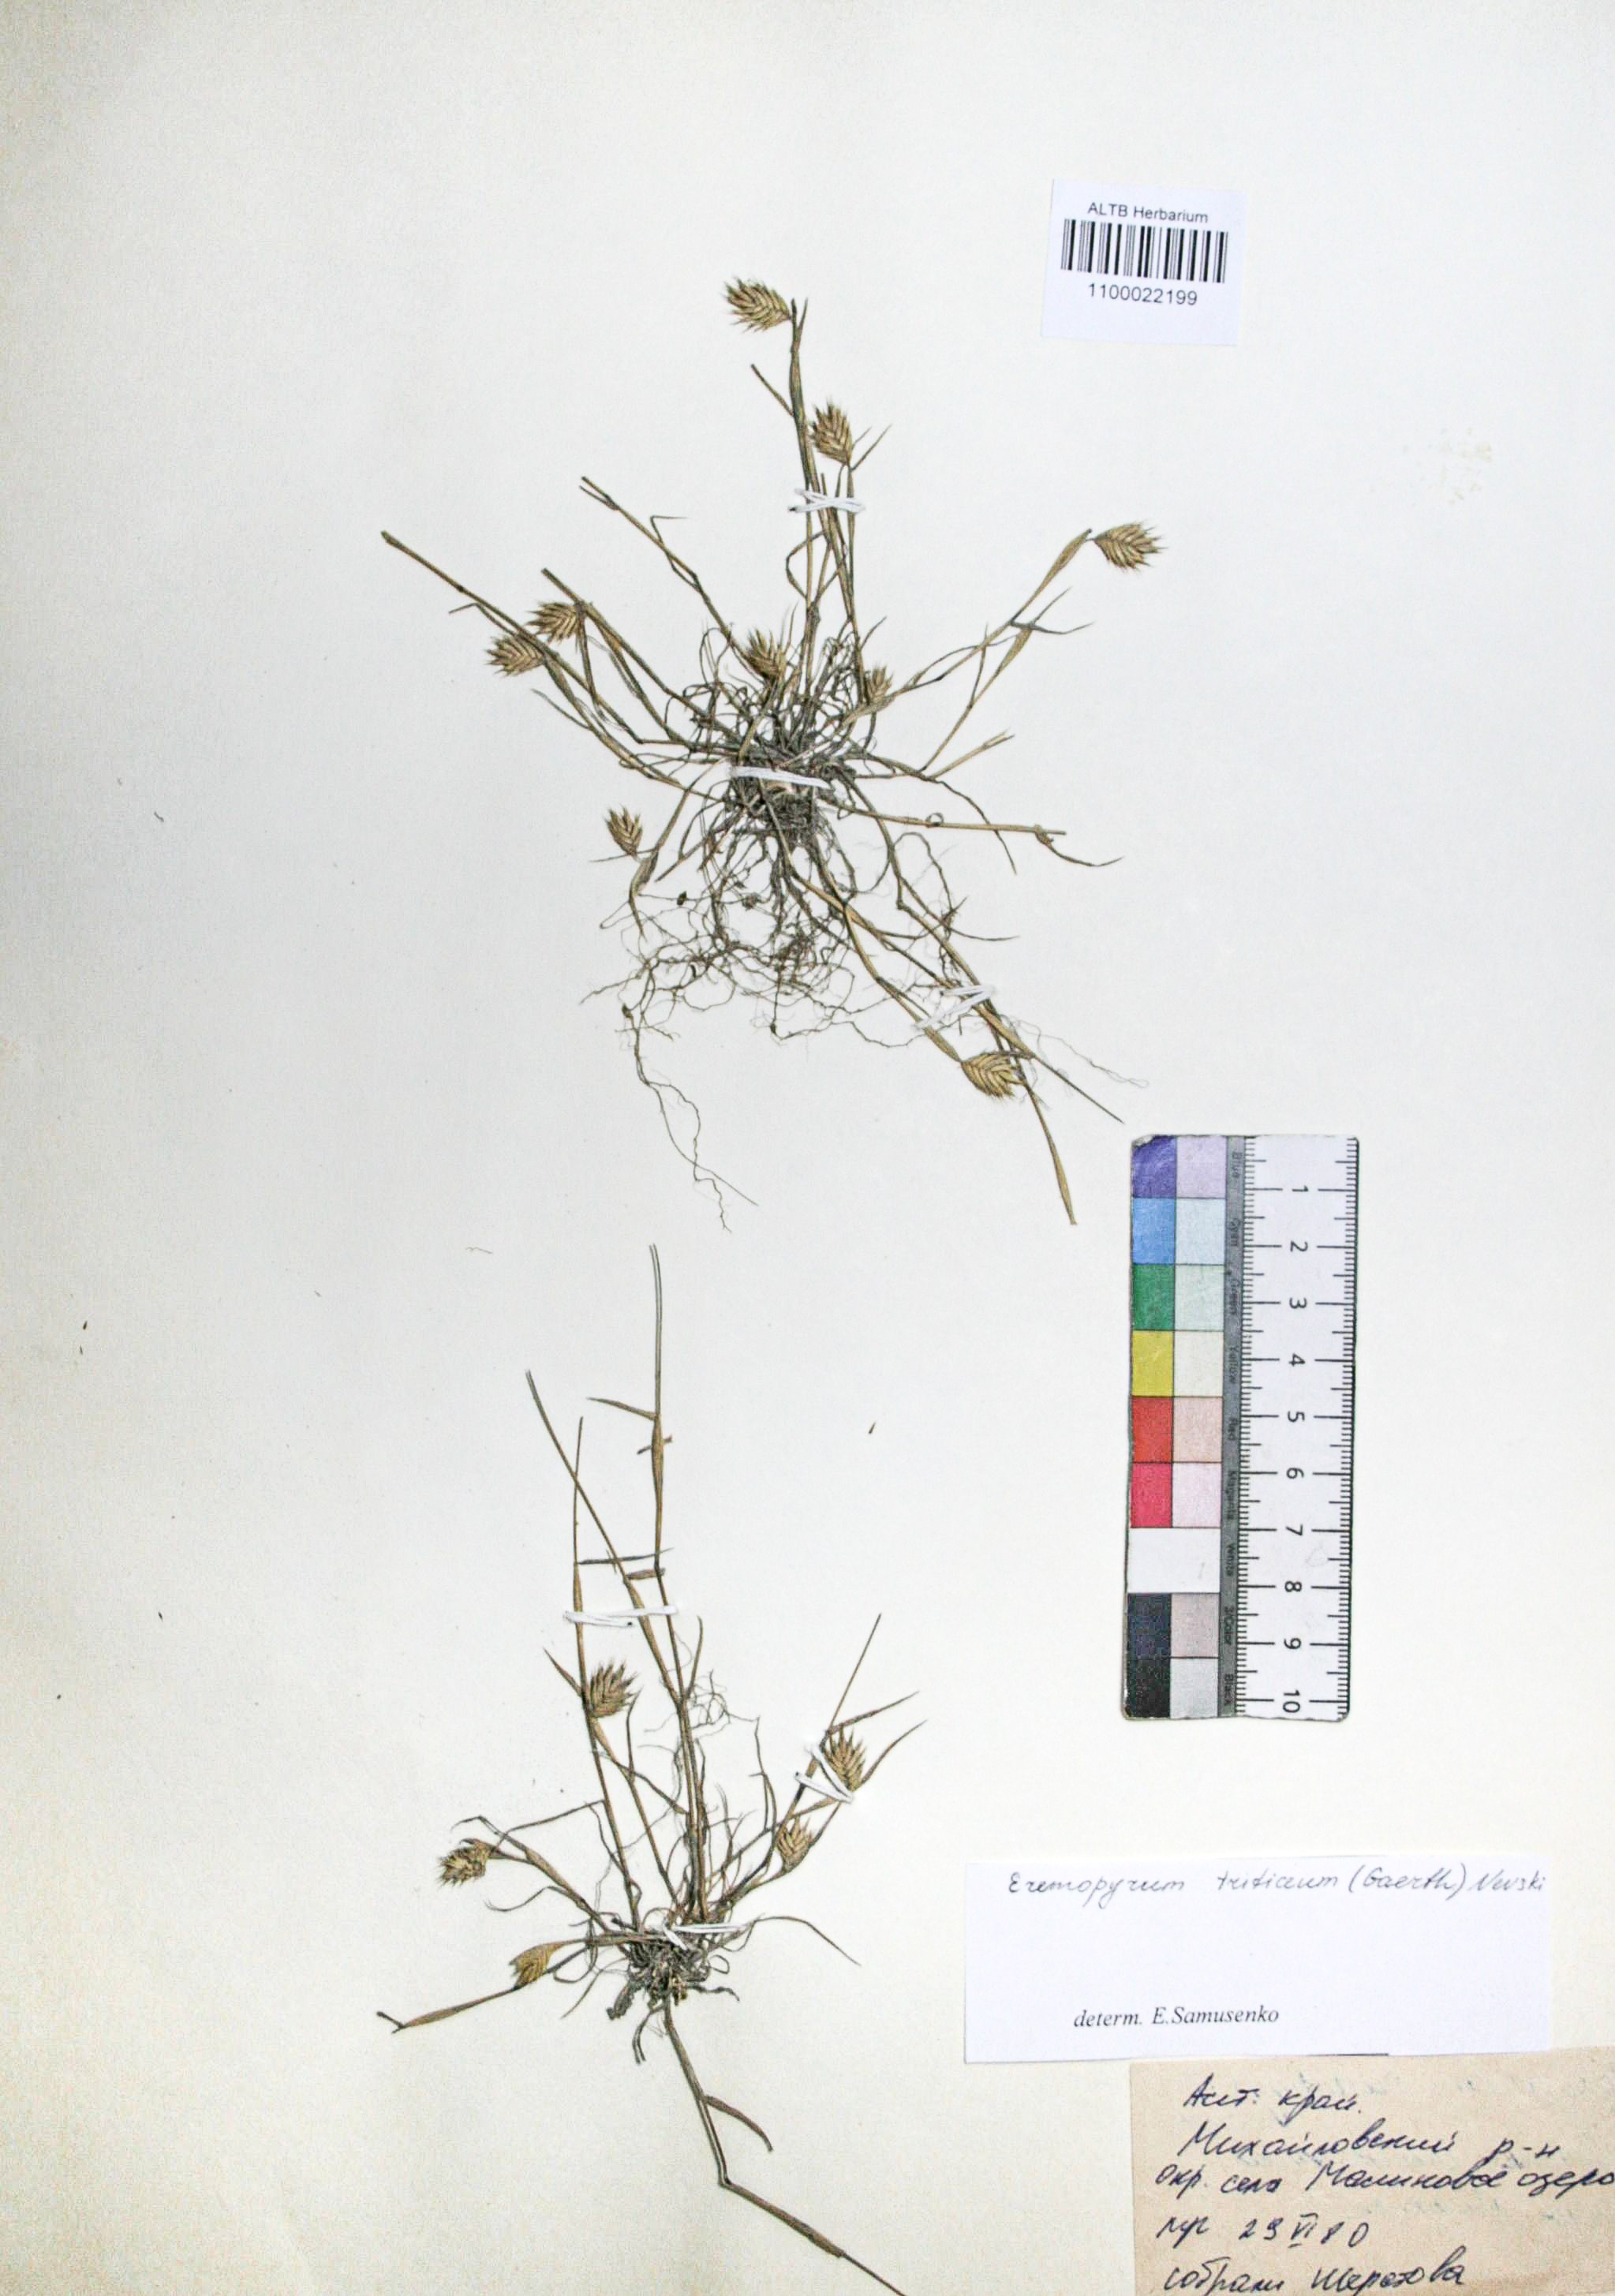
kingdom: Plantae
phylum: Tracheophyta
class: Liliopsida
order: Poales
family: Poaceae
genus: Eremopyrum
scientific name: Eremopyrum triticeum
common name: Annual wheatgrass
